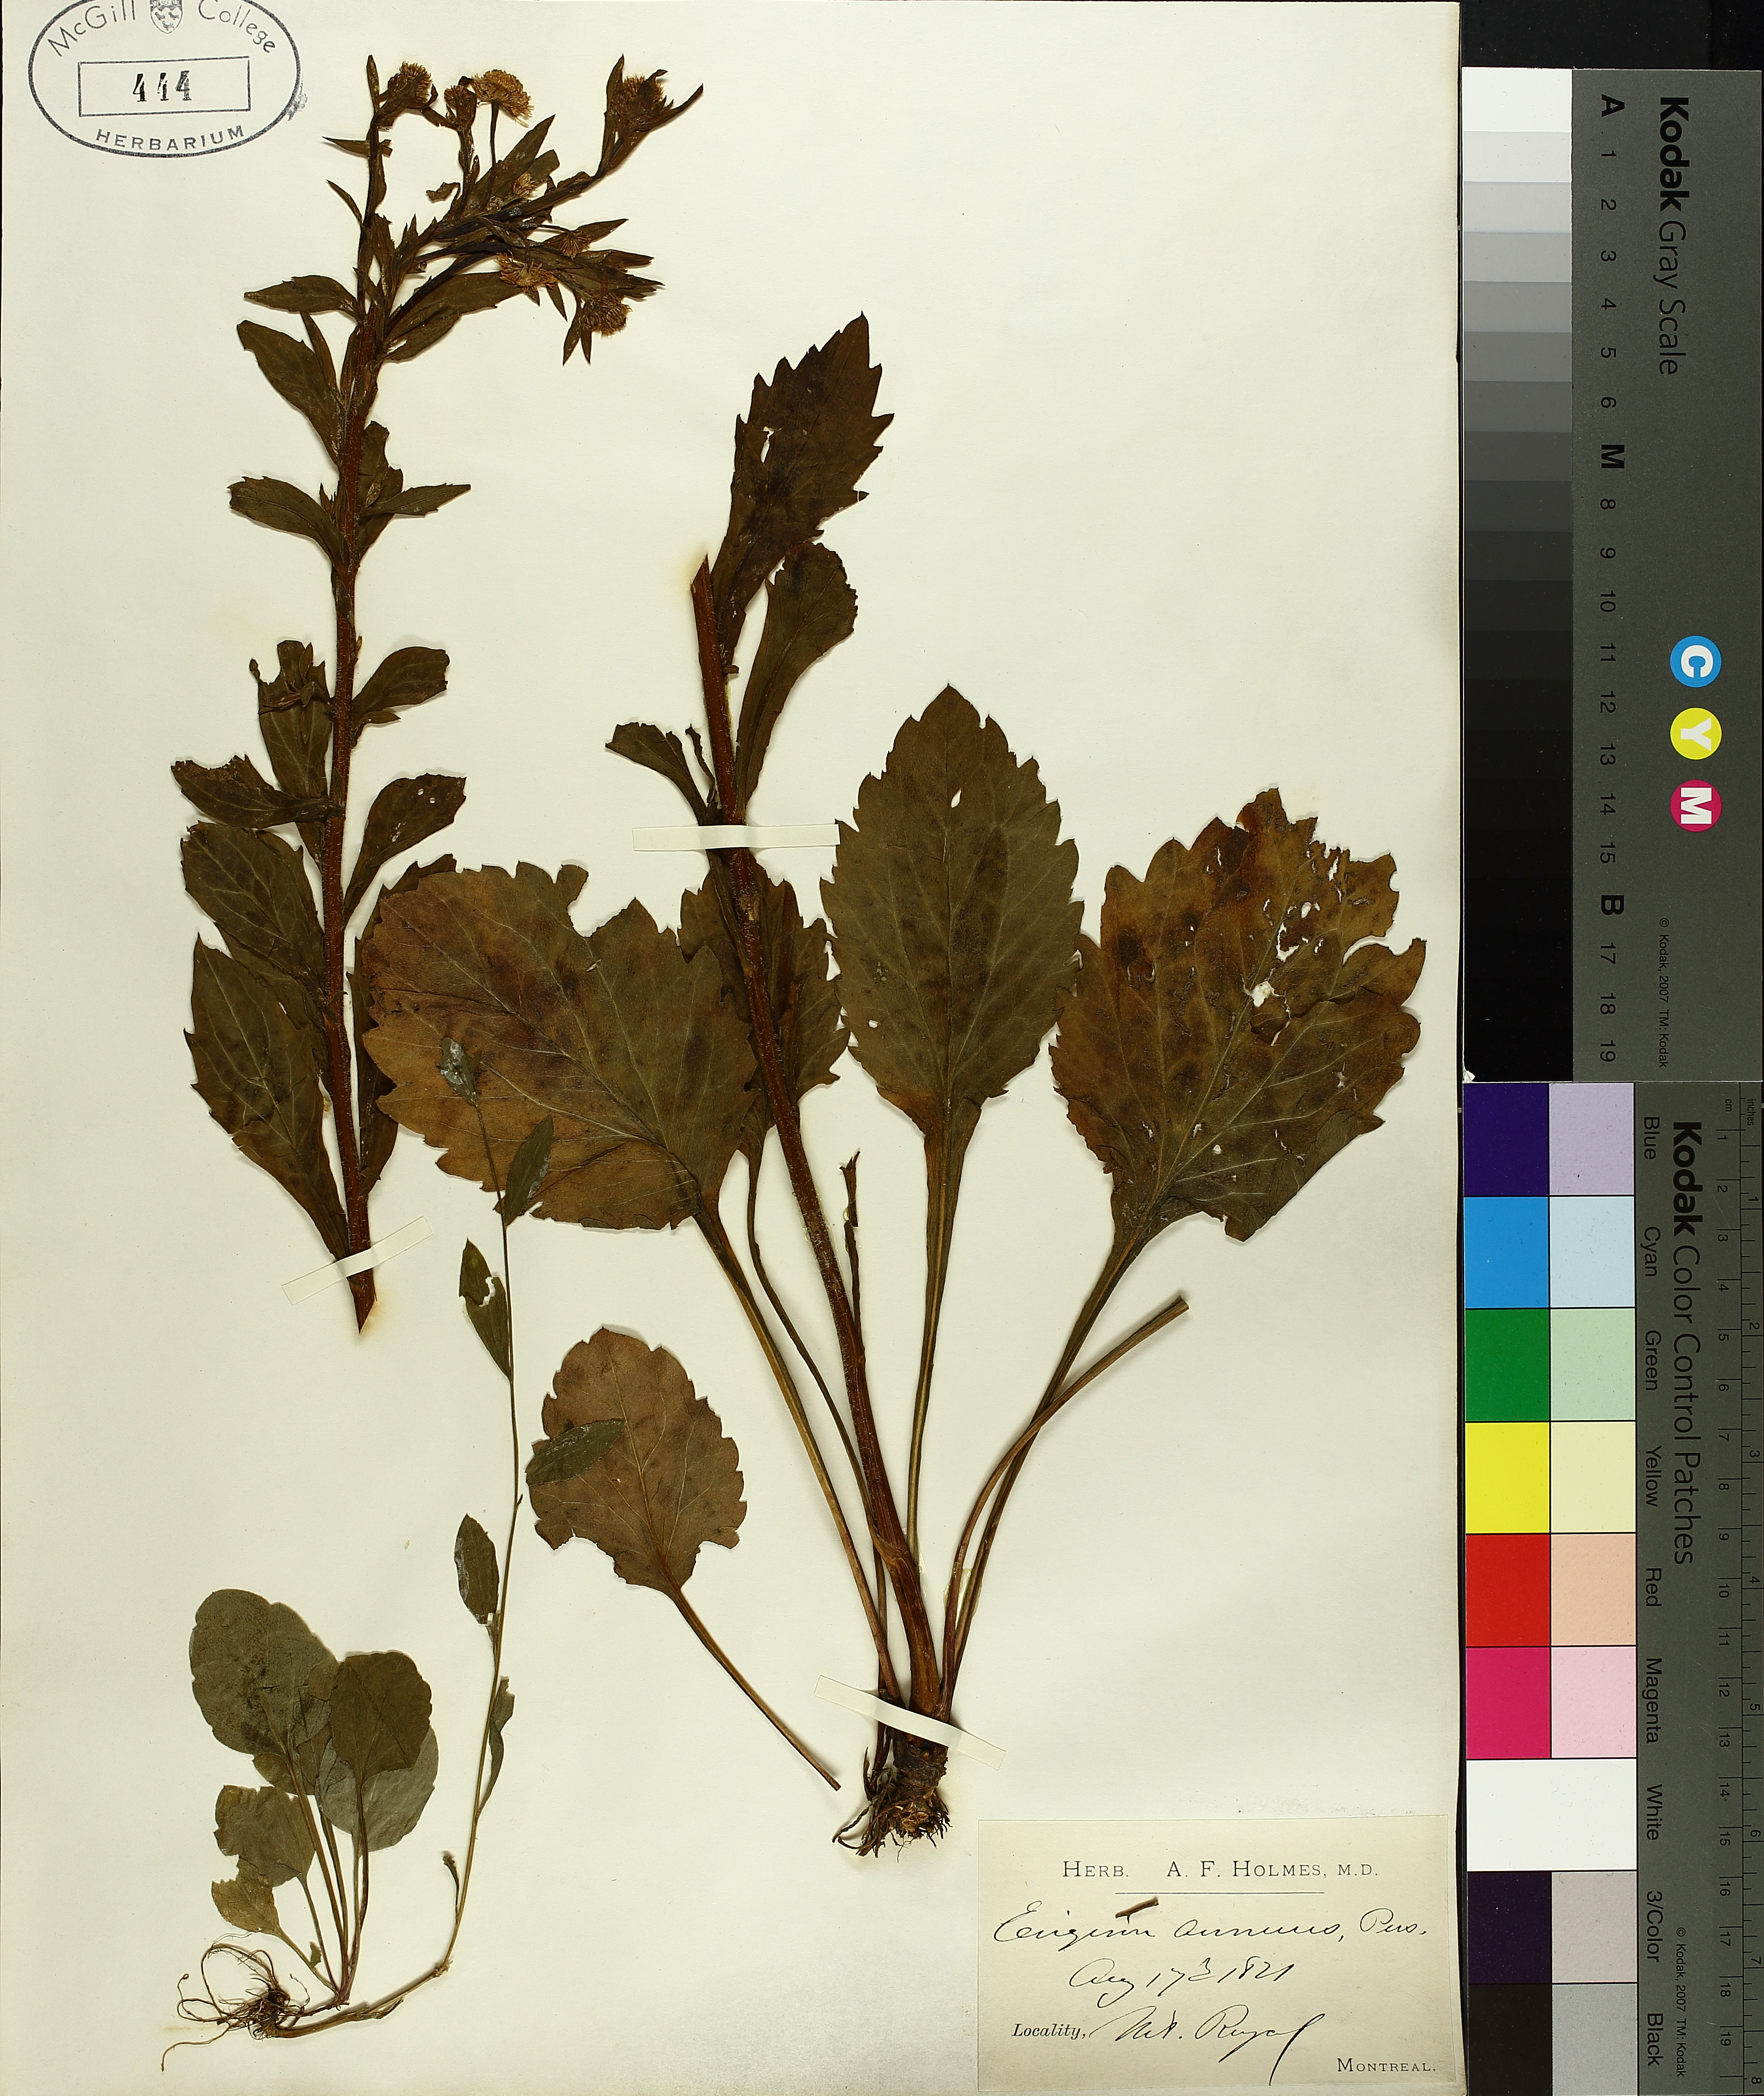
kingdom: Plantae
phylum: Tracheophyta
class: Magnoliopsida
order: Asterales
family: Asteraceae
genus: Erigeron
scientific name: Erigeron annuus
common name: Tall fleabane
